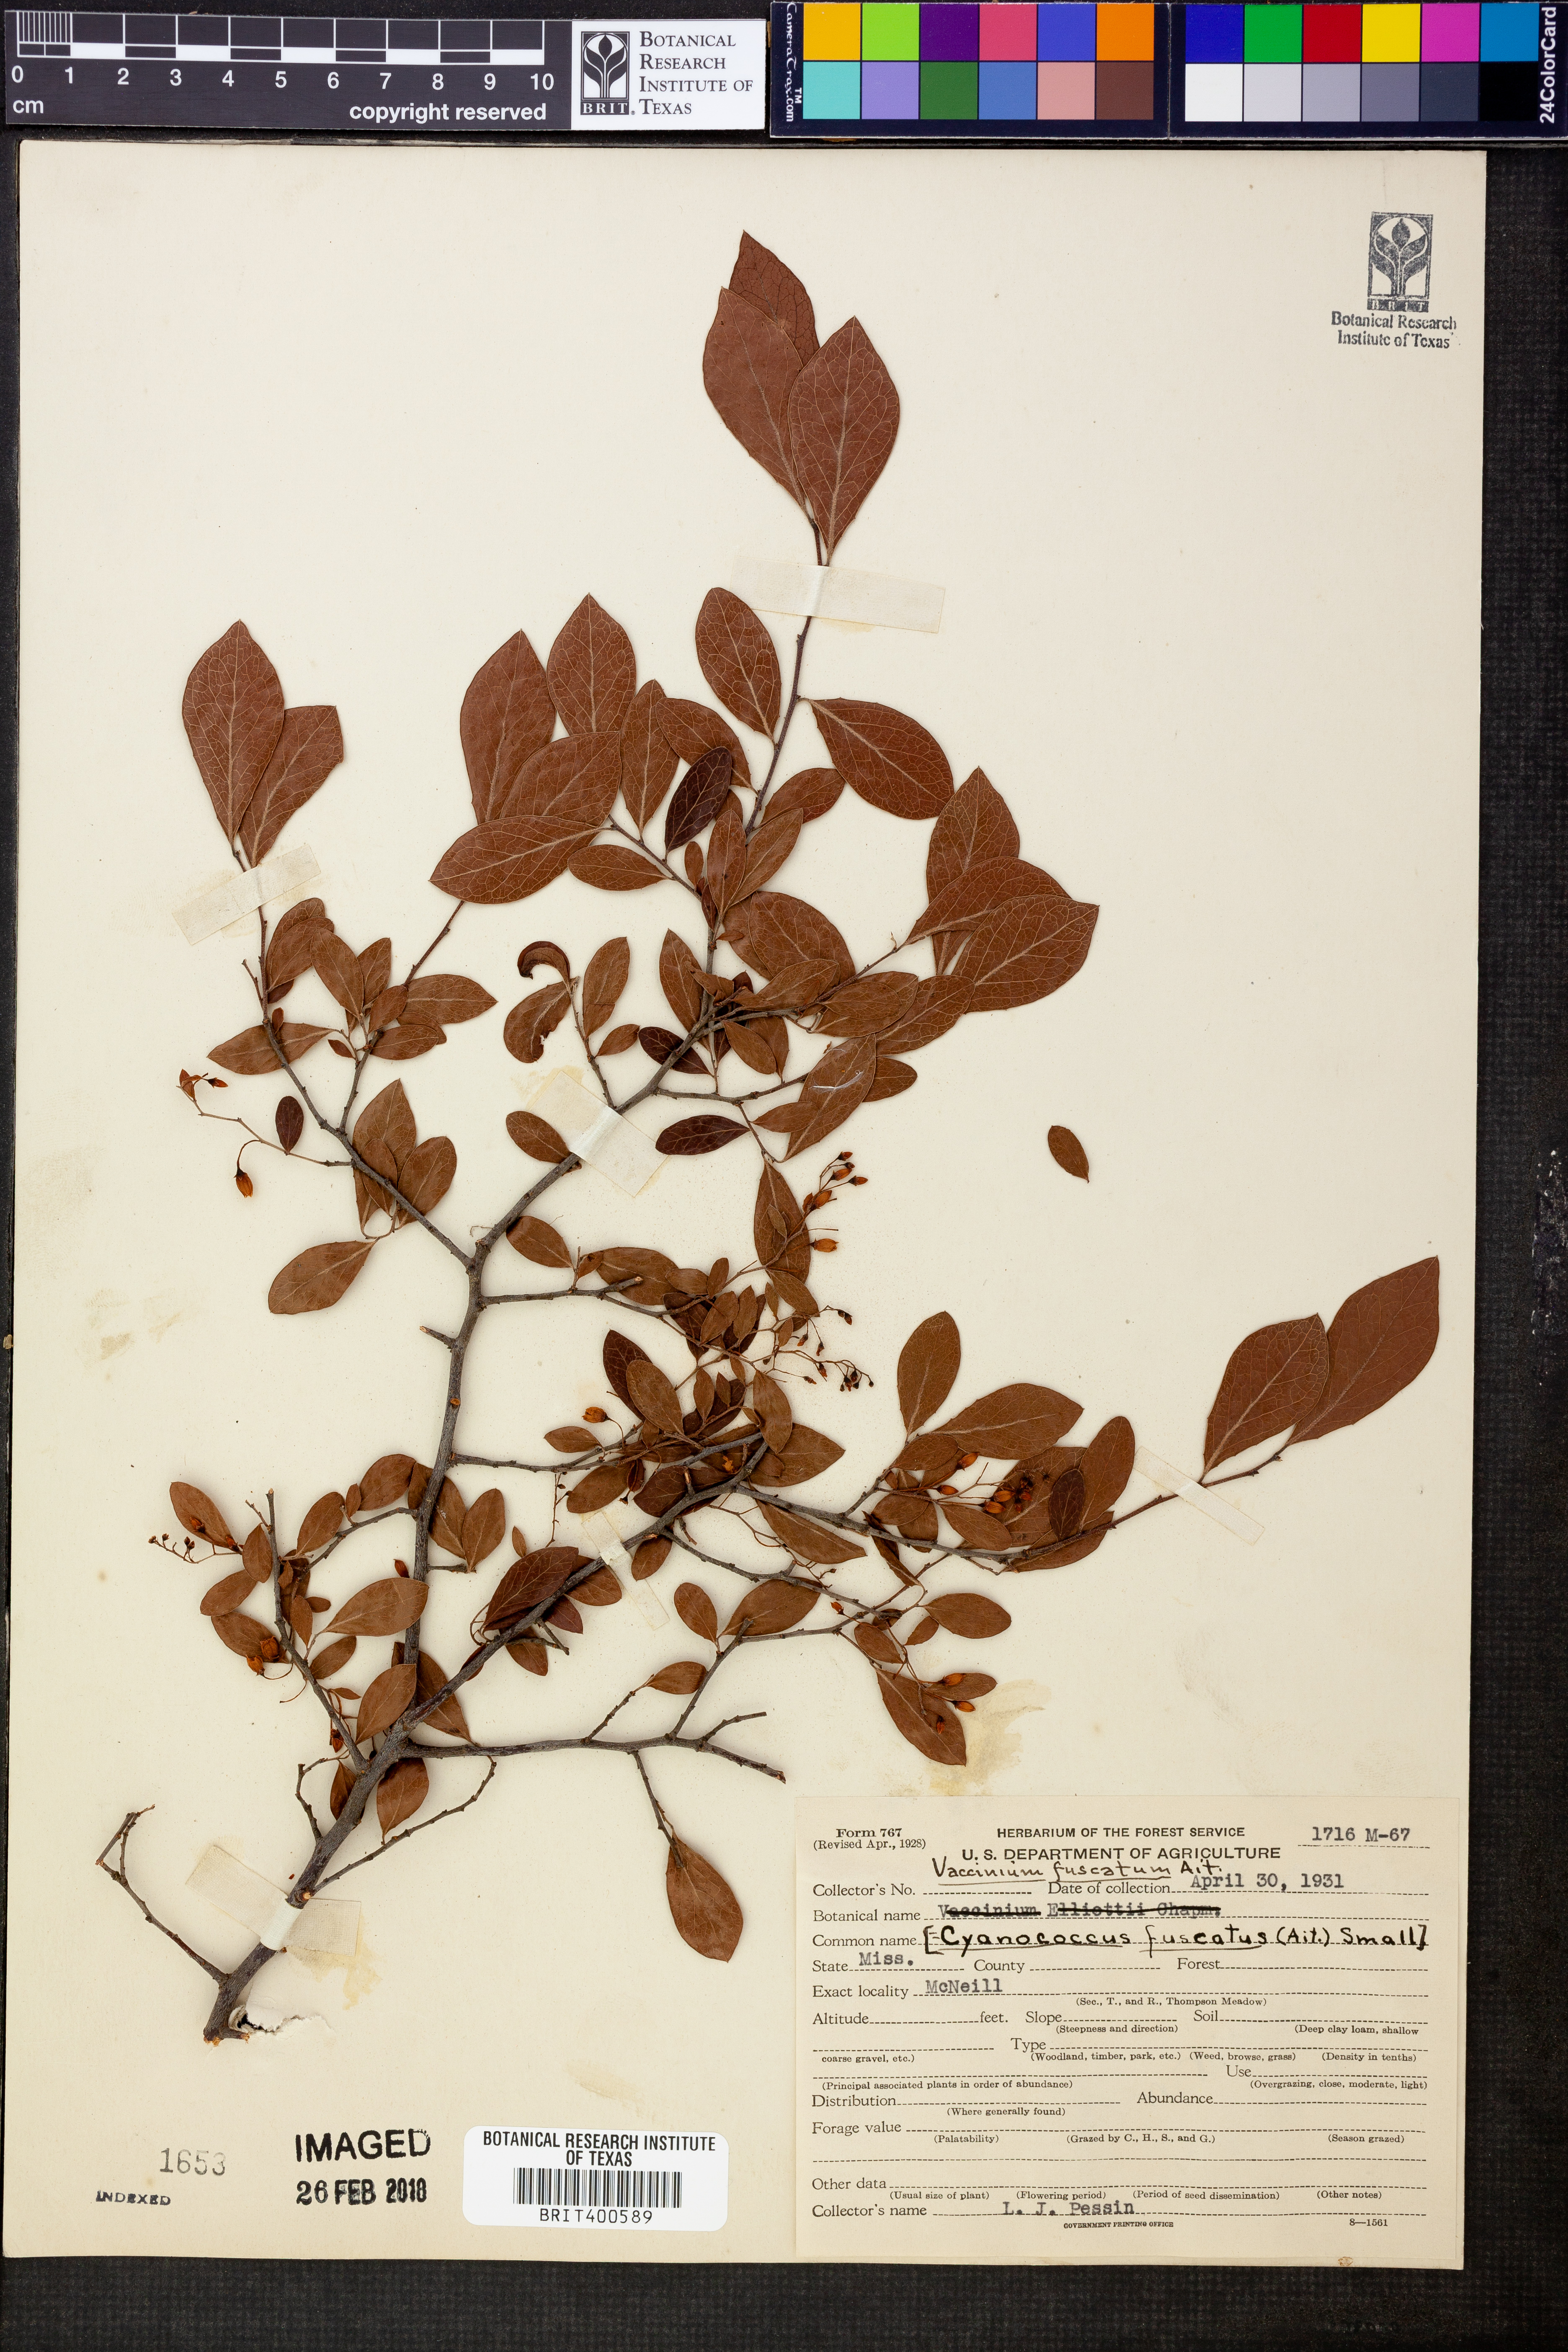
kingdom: Plantae
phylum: Tracheophyta
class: Magnoliopsida
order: Ericales
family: Ericaceae
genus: Vaccinium
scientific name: Vaccinium arboreum
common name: Farkleberry
